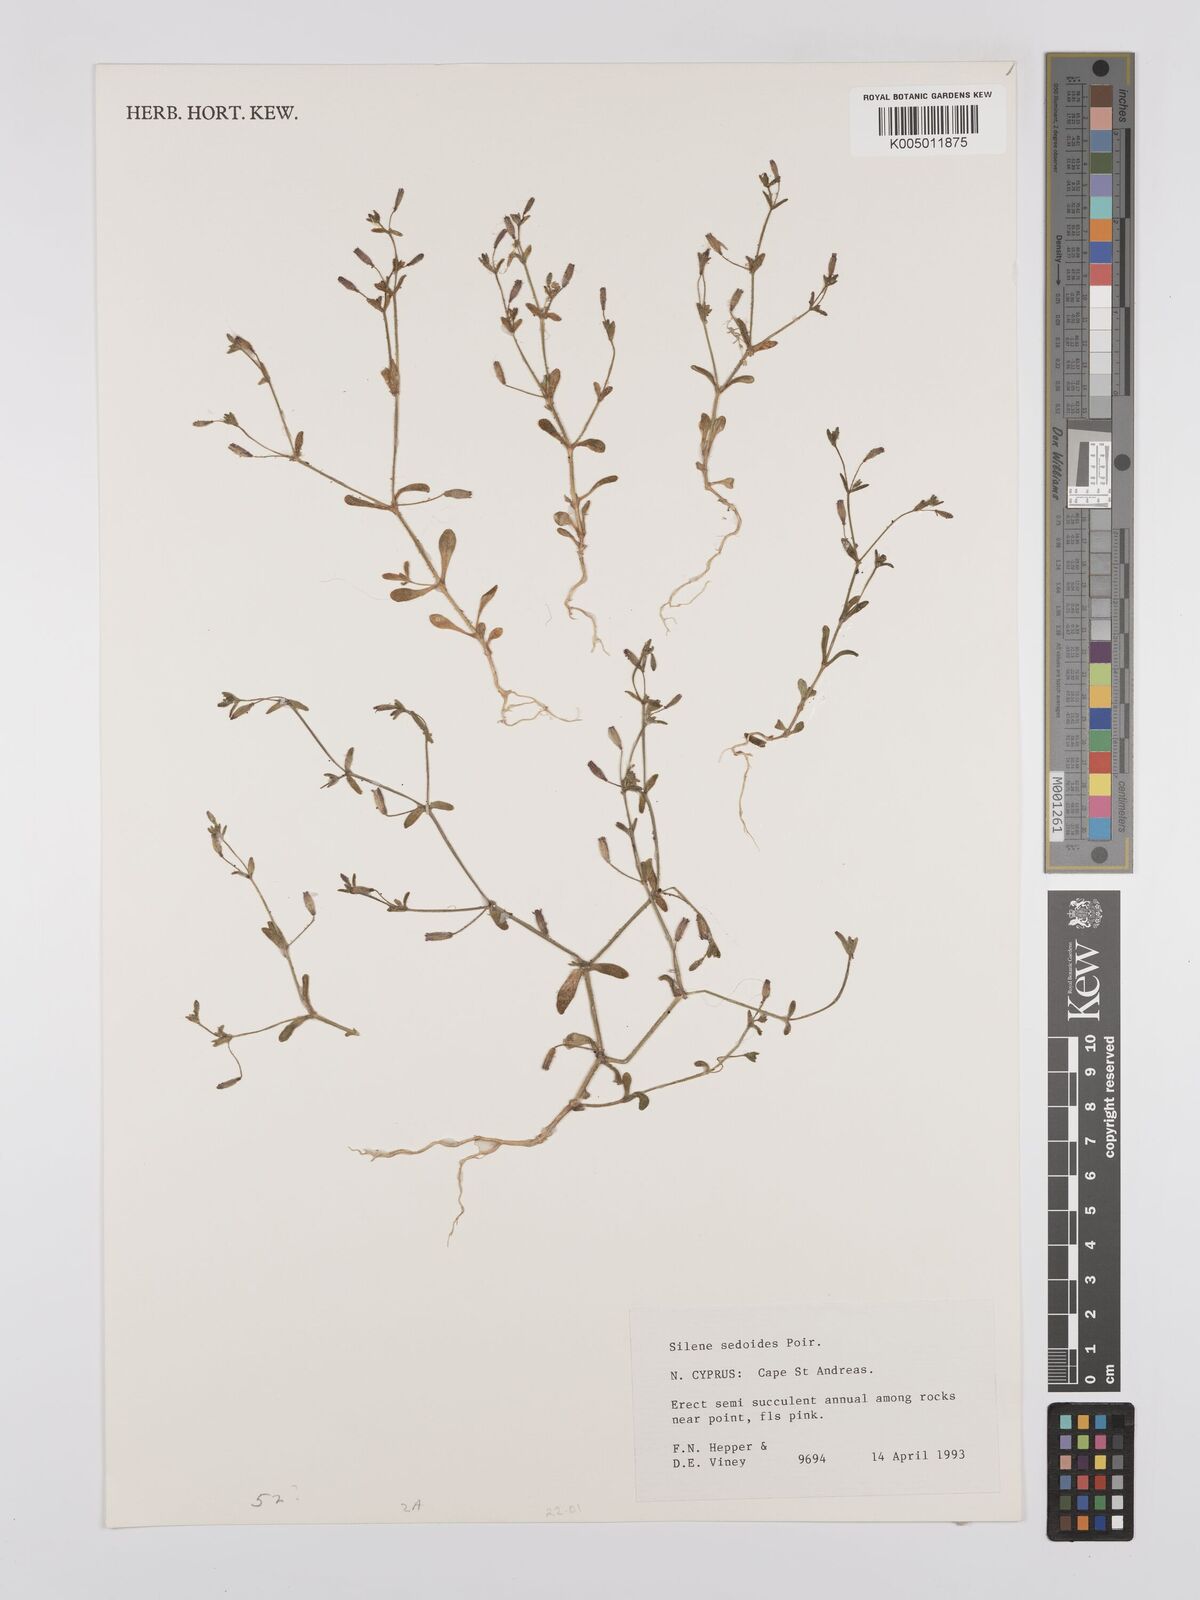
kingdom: Plantae
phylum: Tracheophyta
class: Magnoliopsida
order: Caryophyllales
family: Caryophyllaceae
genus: Silene
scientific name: Silene sedoides
